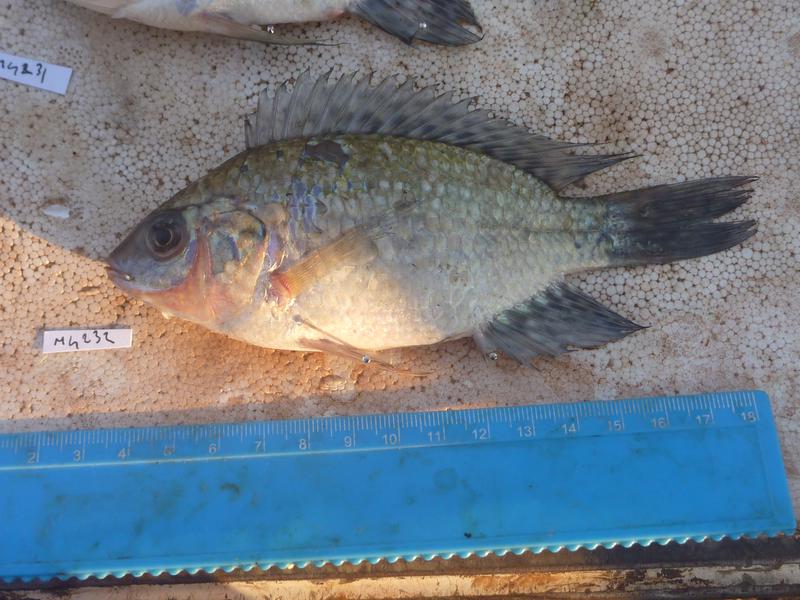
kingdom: Animalia
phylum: Chordata
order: Perciformes
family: Cichlidae
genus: Oreochromis
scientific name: Oreochromis leucostictus
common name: Blue spotted tilapia
